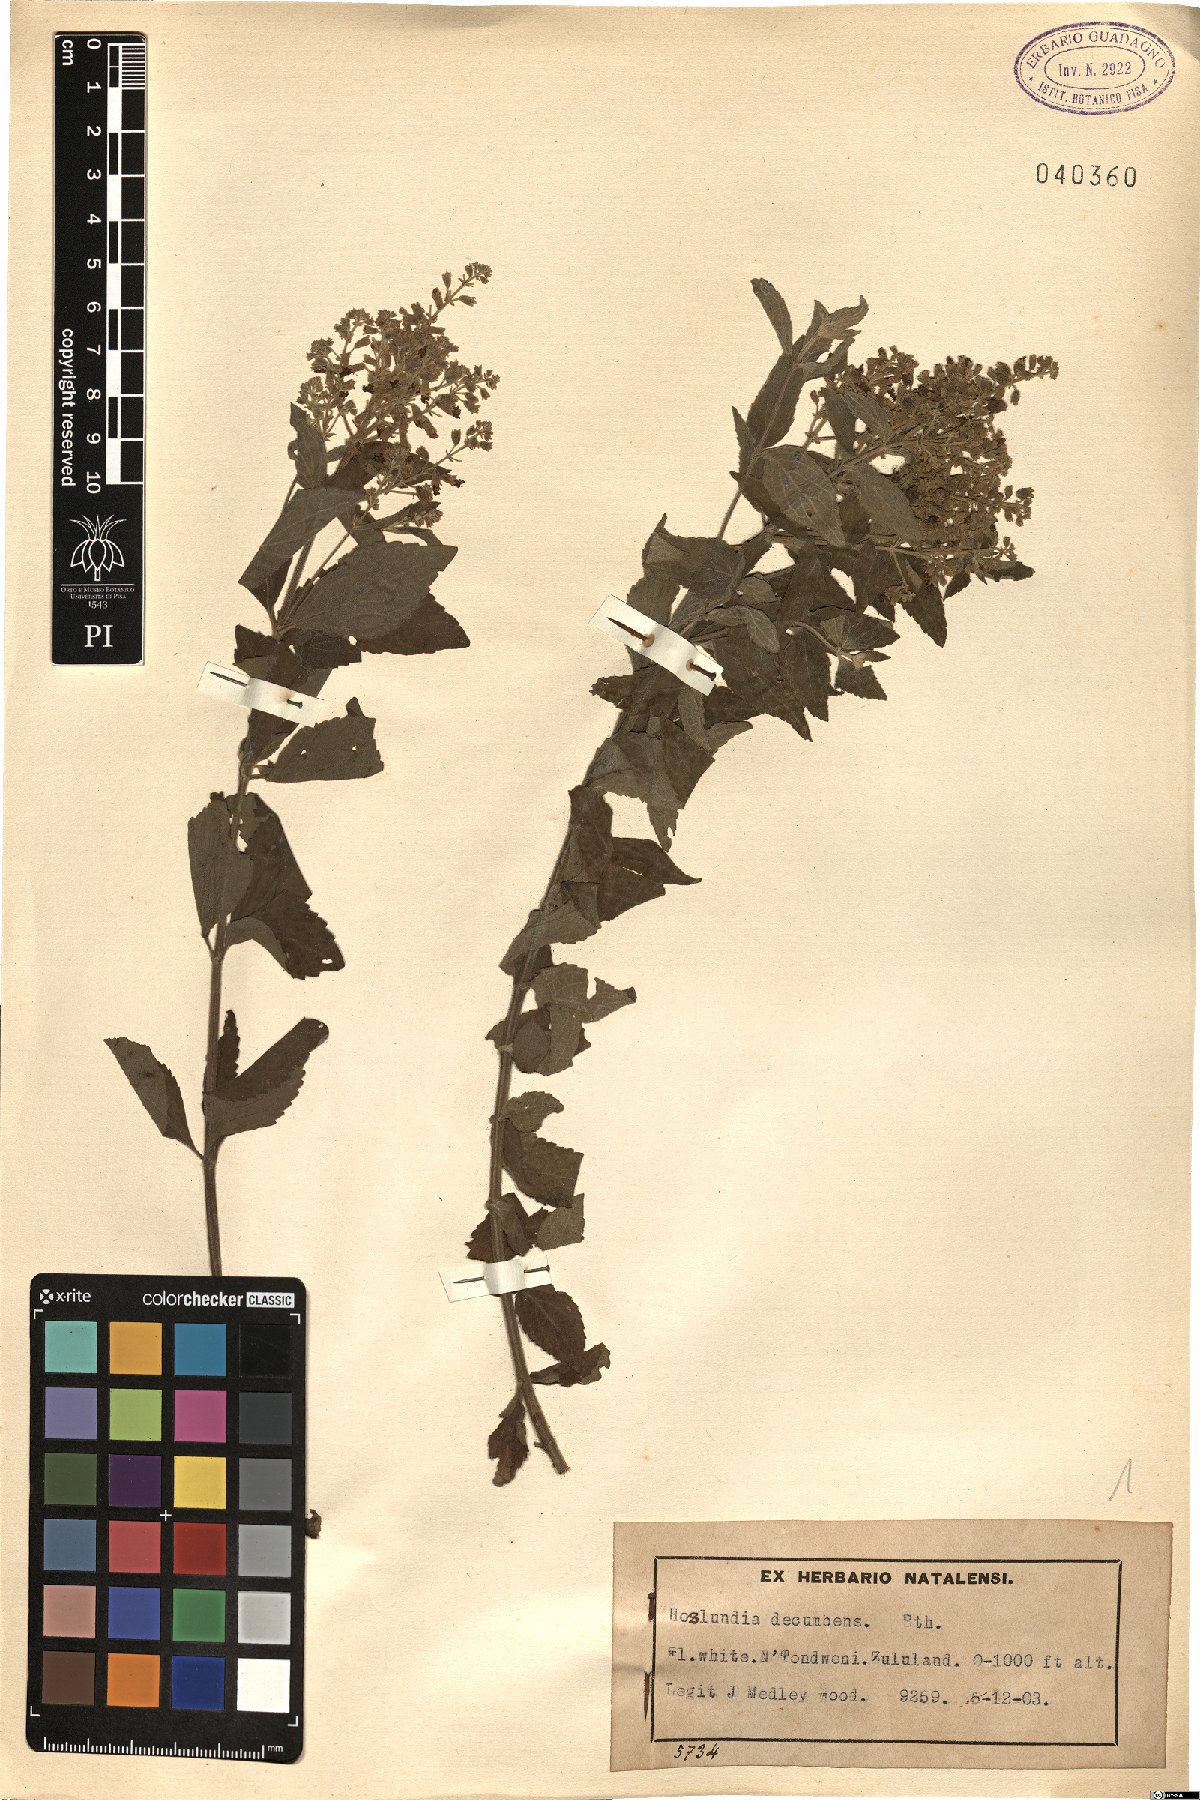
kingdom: Plantae
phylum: Tracheophyta
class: Magnoliopsida
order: Lamiales
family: Lamiaceae
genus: Hoslundia
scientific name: Hoslundia opposita
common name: Kamyuye
